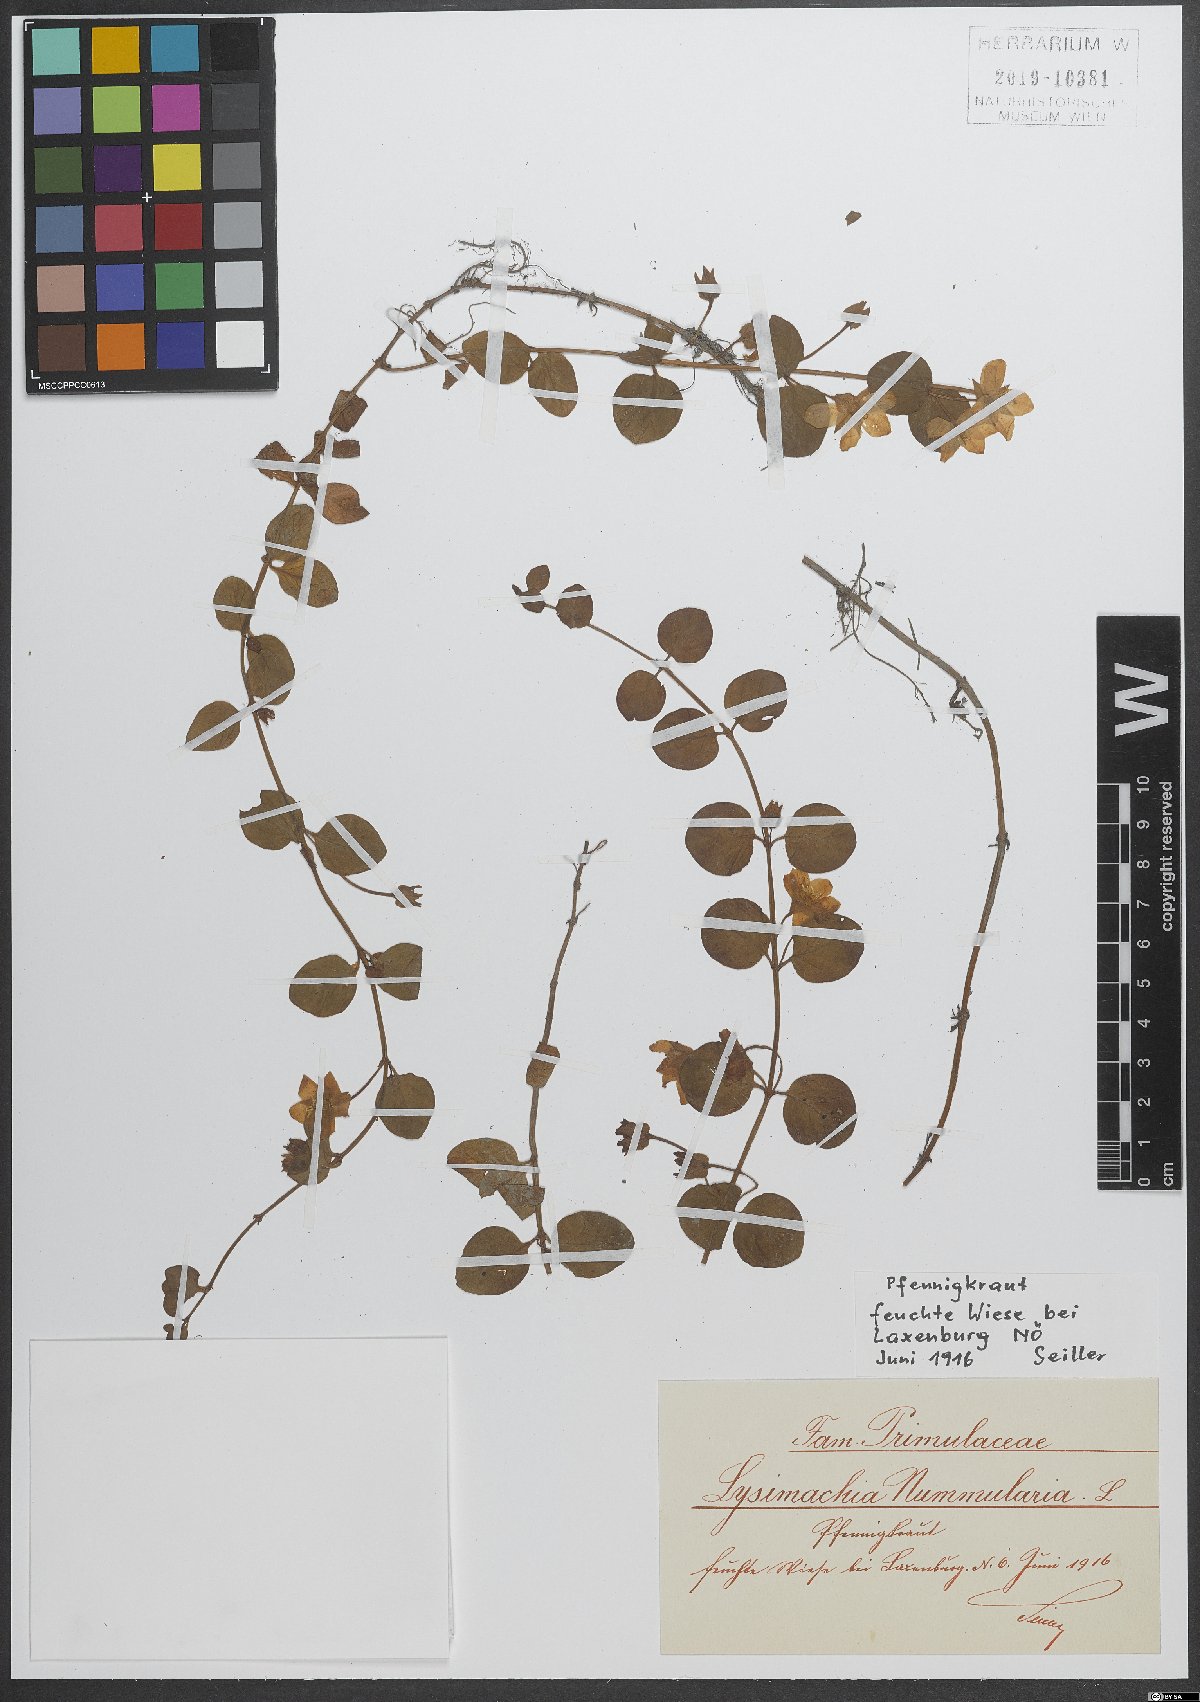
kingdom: Plantae
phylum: Tracheophyta
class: Magnoliopsida
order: Ericales
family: Primulaceae
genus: Lysimachia
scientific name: Lysimachia nummularia
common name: Moneywort
